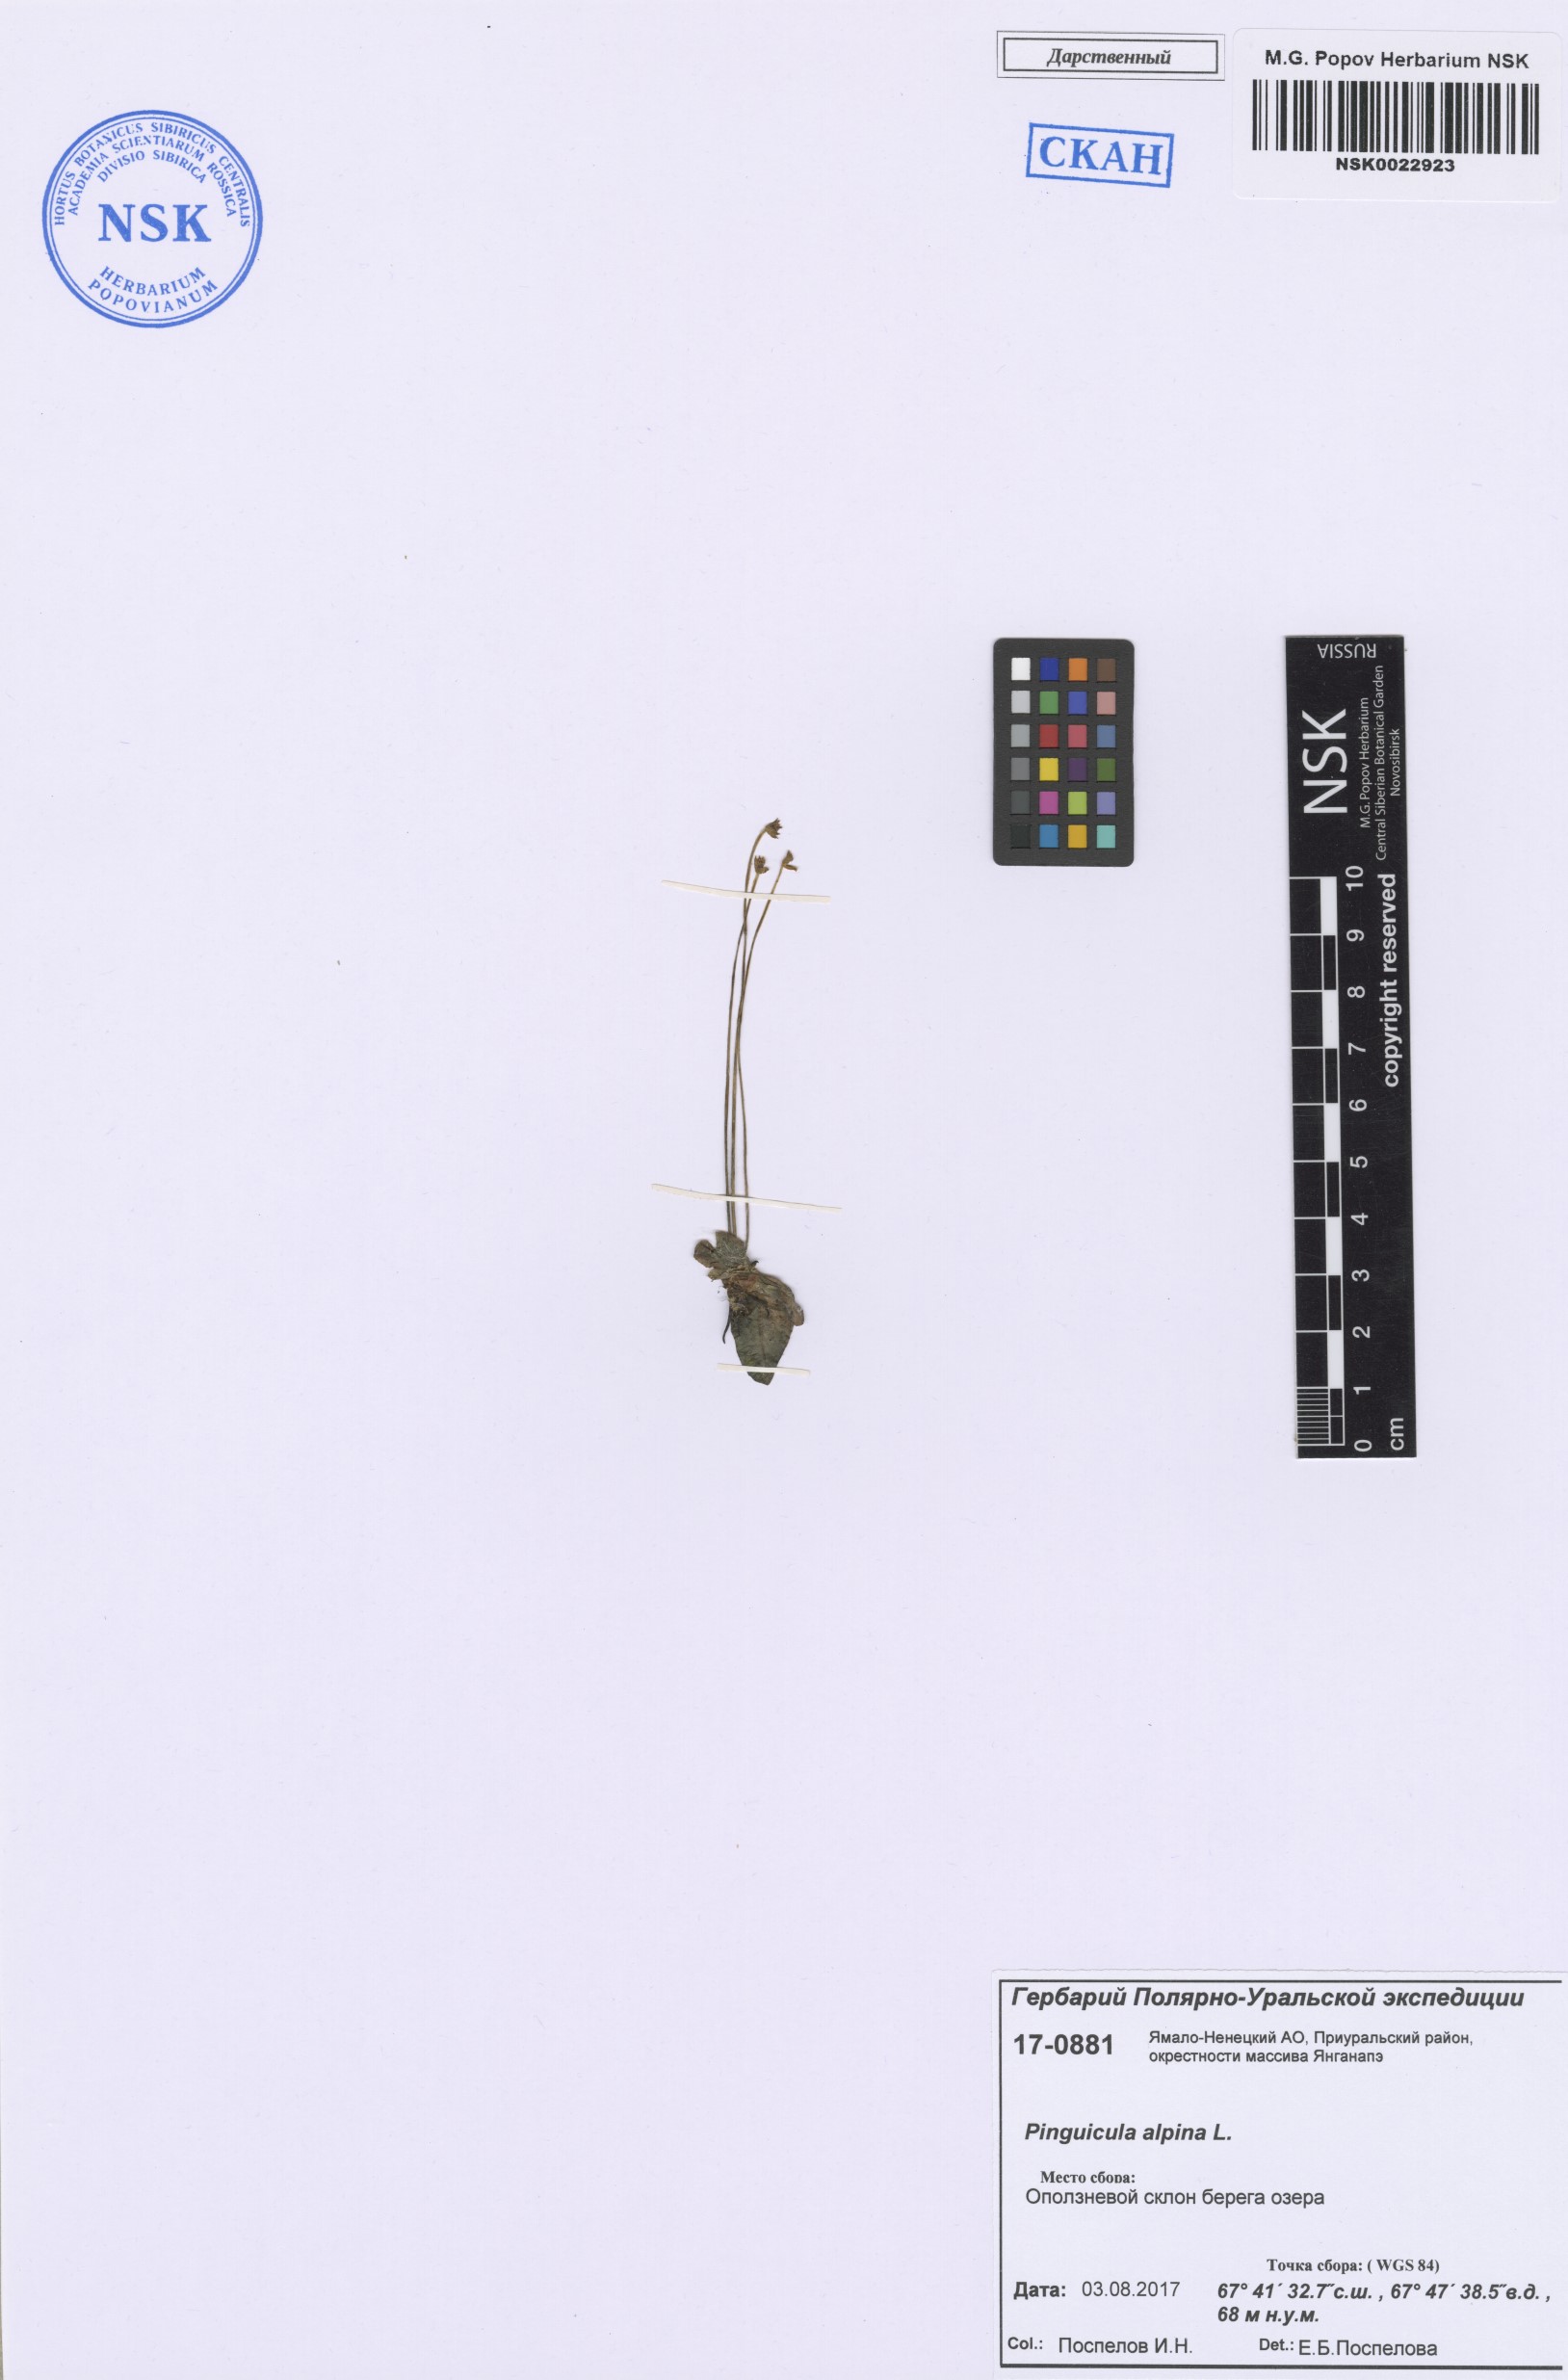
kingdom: Plantae
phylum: Tracheophyta
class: Magnoliopsida
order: Lamiales
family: Lentibulariaceae
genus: Pinguicula
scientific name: Pinguicula alpina
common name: Alpine butterwort
